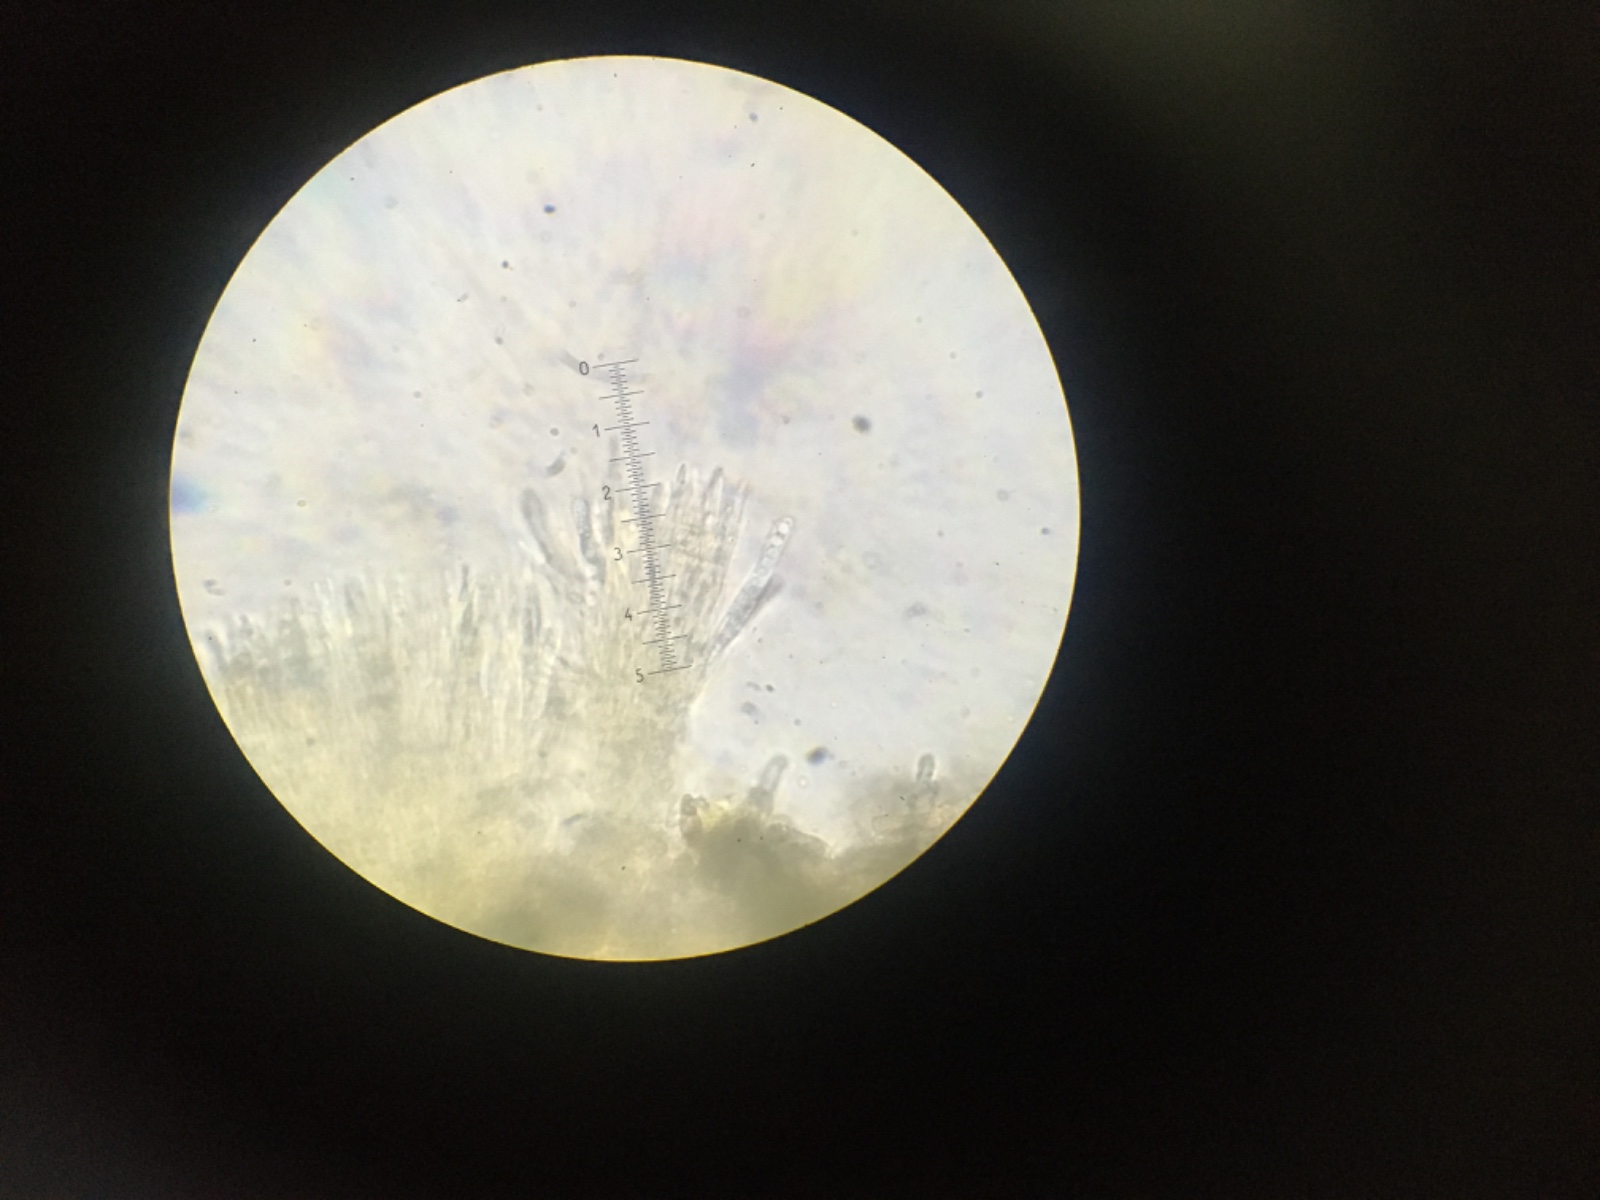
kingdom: Fungi
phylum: Ascomycota
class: Leotiomycetes
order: Helotiales
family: Lachnaceae
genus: Lachnellula
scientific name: Lachnellula calycina
